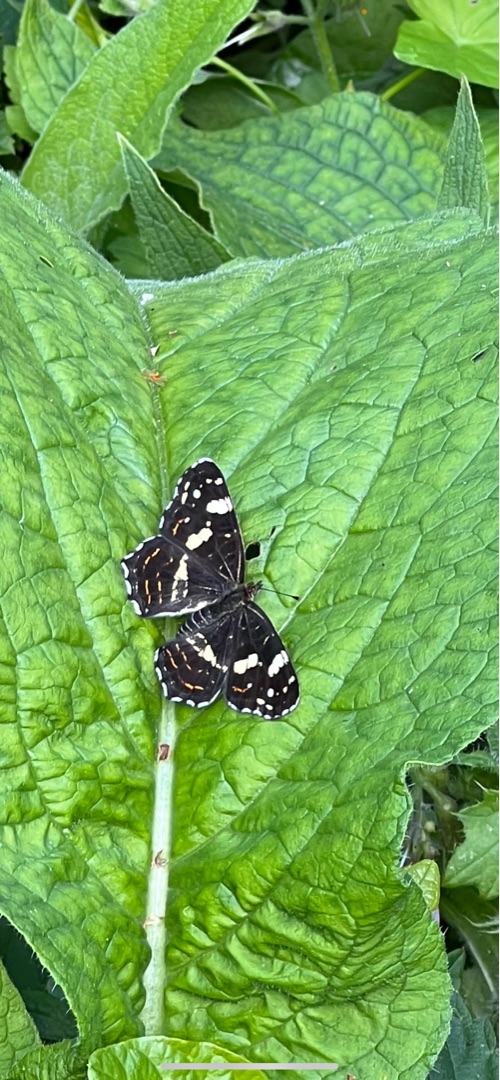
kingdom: Animalia
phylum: Arthropoda
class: Insecta
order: Lepidoptera
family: Nymphalidae
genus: Araschnia
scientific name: Araschnia levana
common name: Nældesommerfugl
